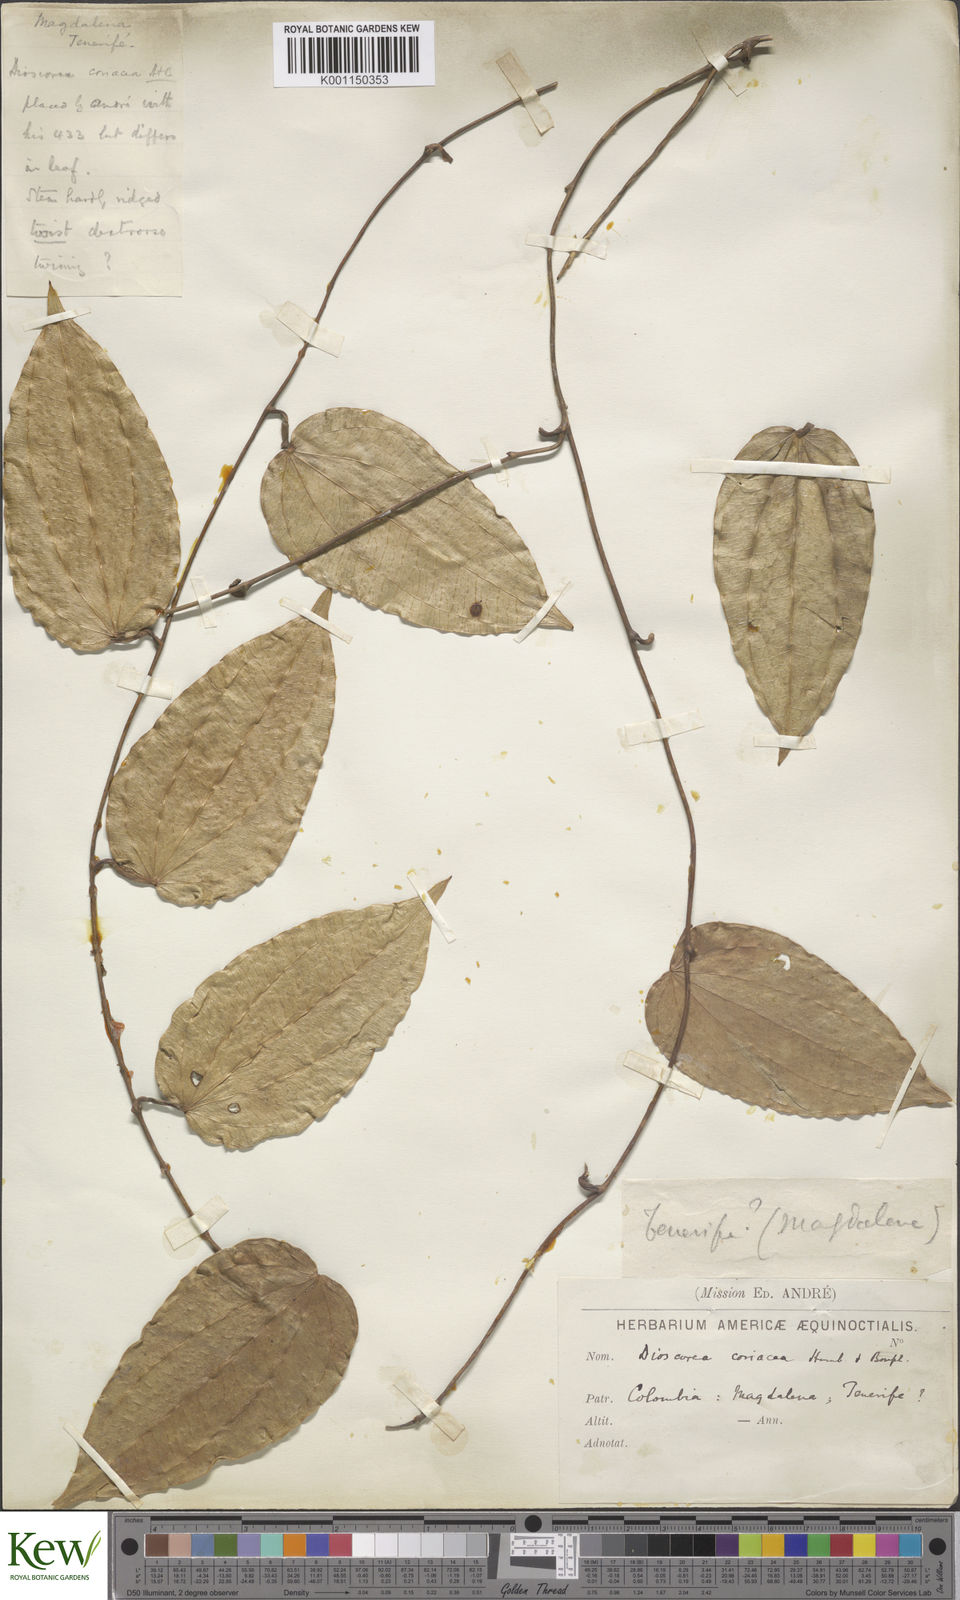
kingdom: Plantae
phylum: Tracheophyta
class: Liliopsida
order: Dioscoreales
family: Dioscoreaceae
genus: Dioscorea
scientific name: Dioscorea coriacea
